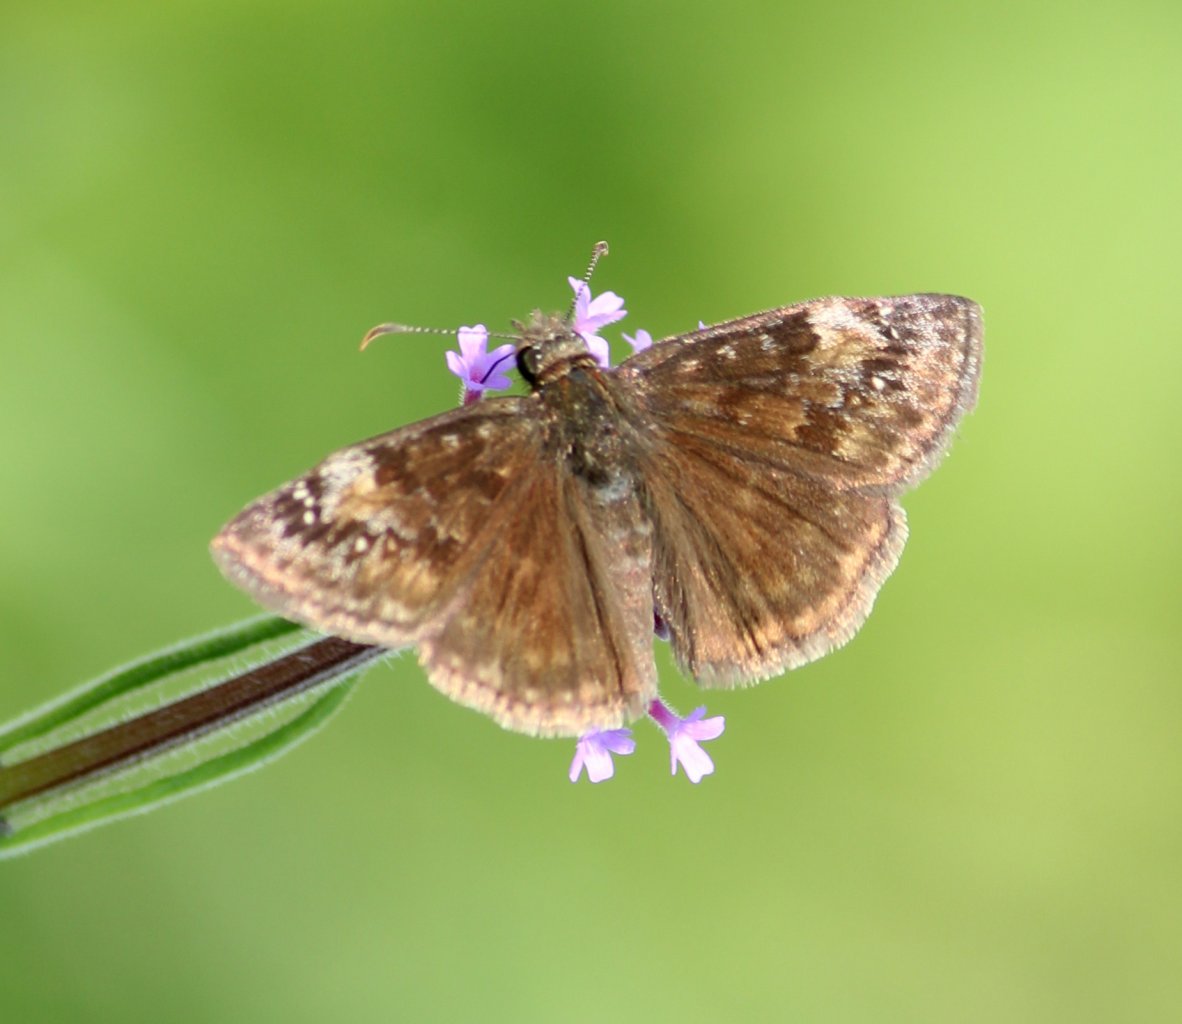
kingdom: Animalia
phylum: Arthropoda
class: Insecta
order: Lepidoptera
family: Hesperiidae
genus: Gesta
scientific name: Gesta
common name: Wild Indigo Duskywing
